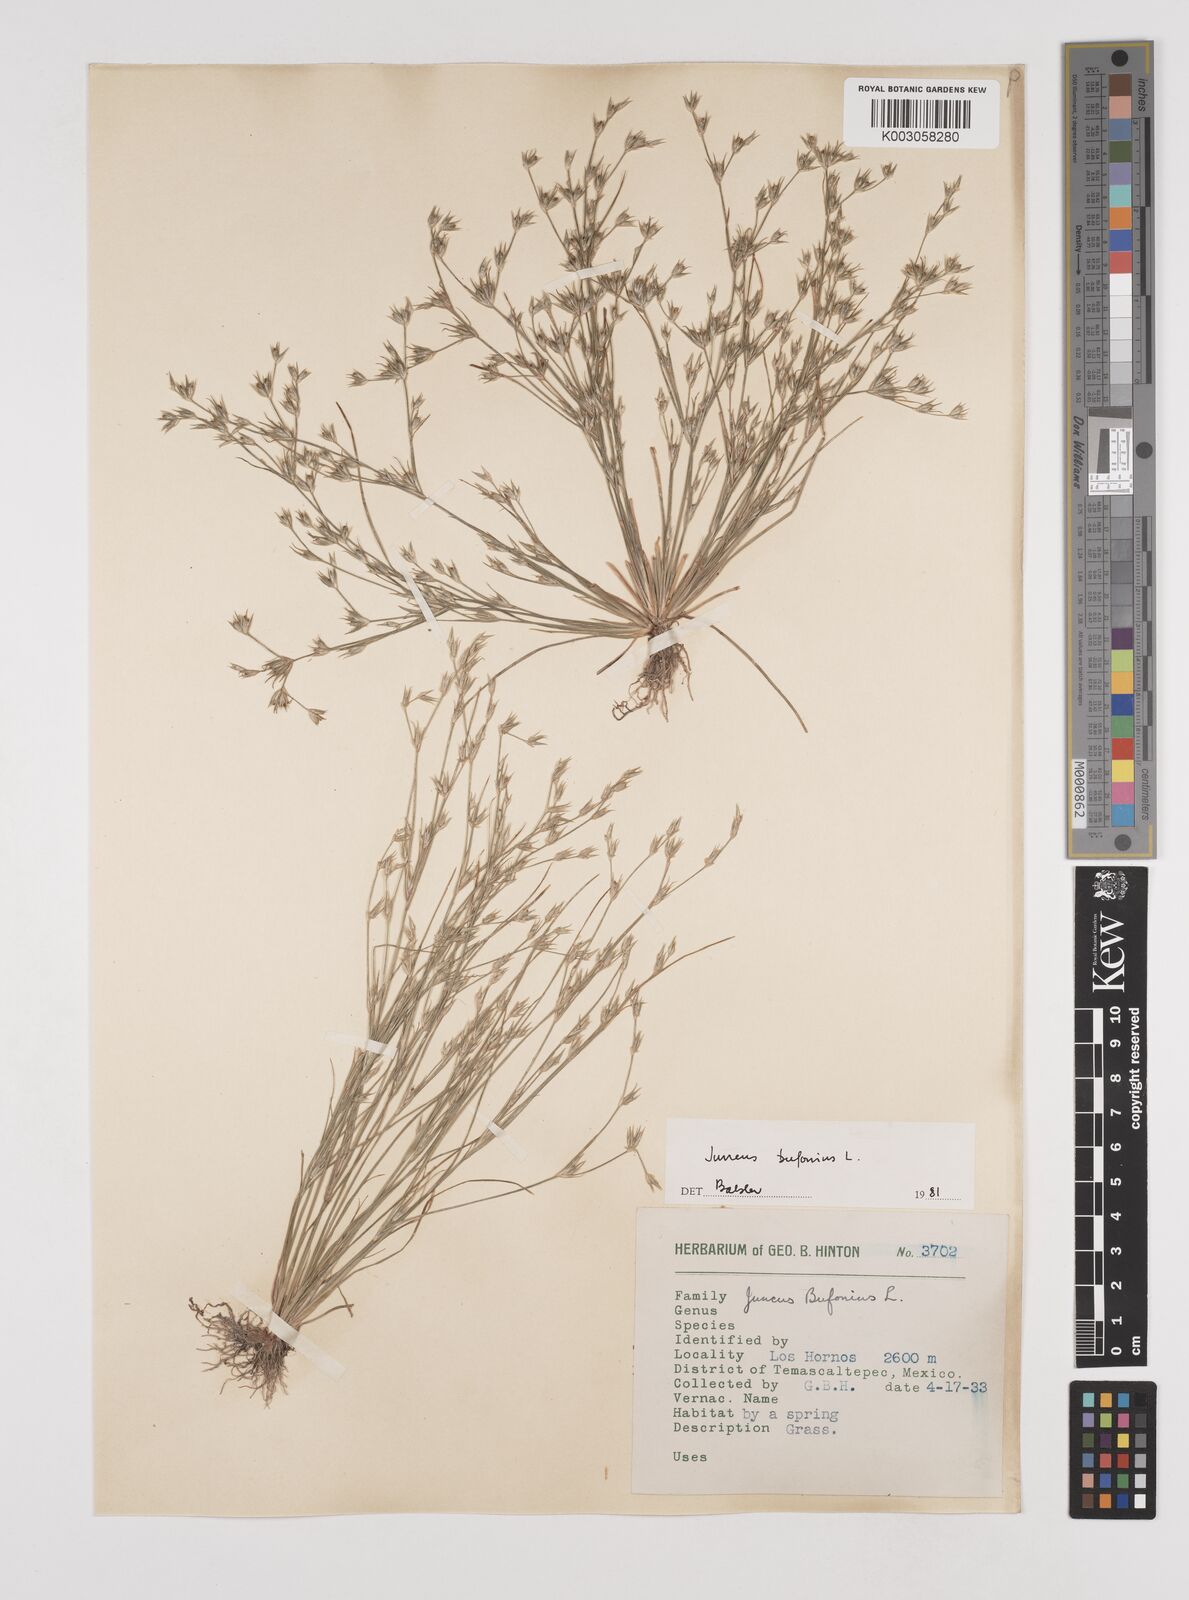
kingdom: Plantae
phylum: Tracheophyta
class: Liliopsida
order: Poales
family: Juncaceae
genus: Juncus
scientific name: Juncus bufonius
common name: Toad rush
